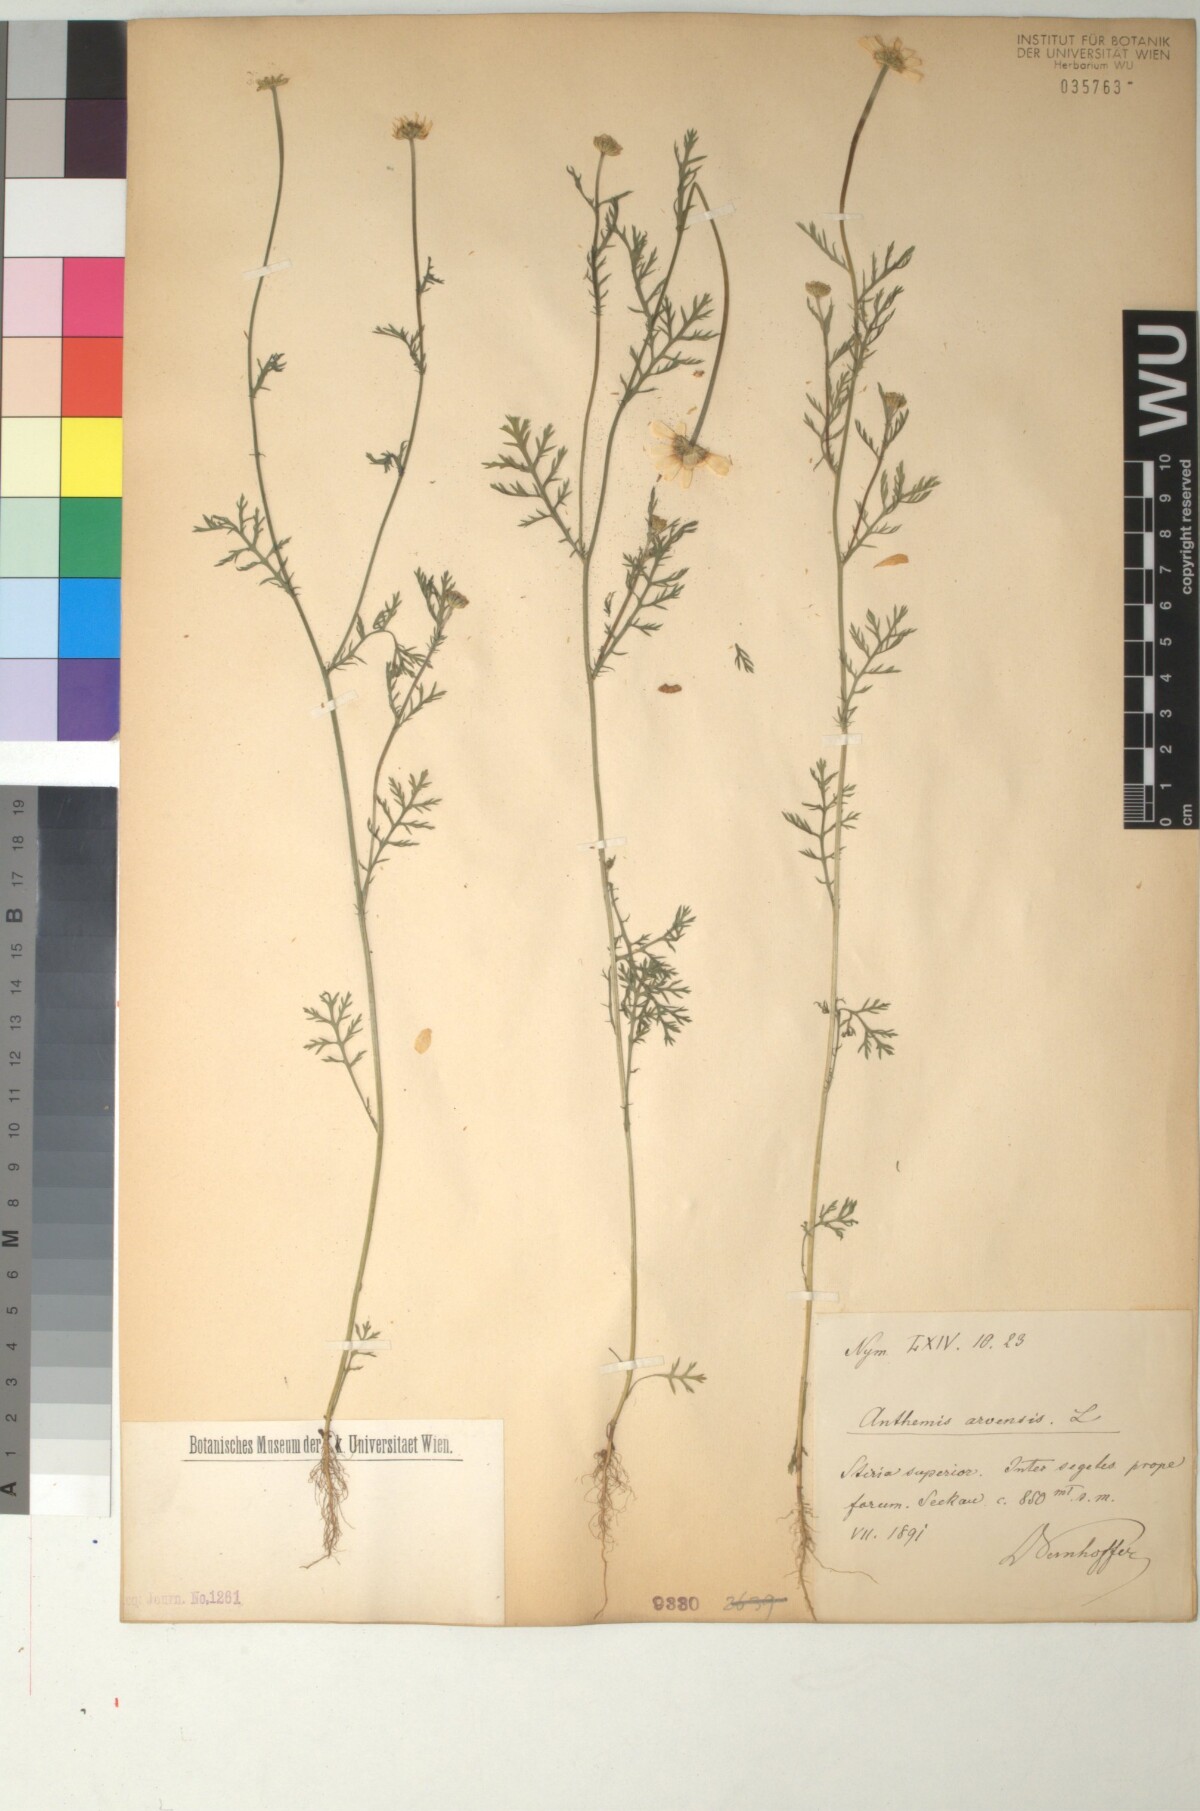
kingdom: Plantae
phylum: Tracheophyta
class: Magnoliopsida
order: Asterales
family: Asteraceae
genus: Anthemis
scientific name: Anthemis arvensis
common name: Corn chamomile
